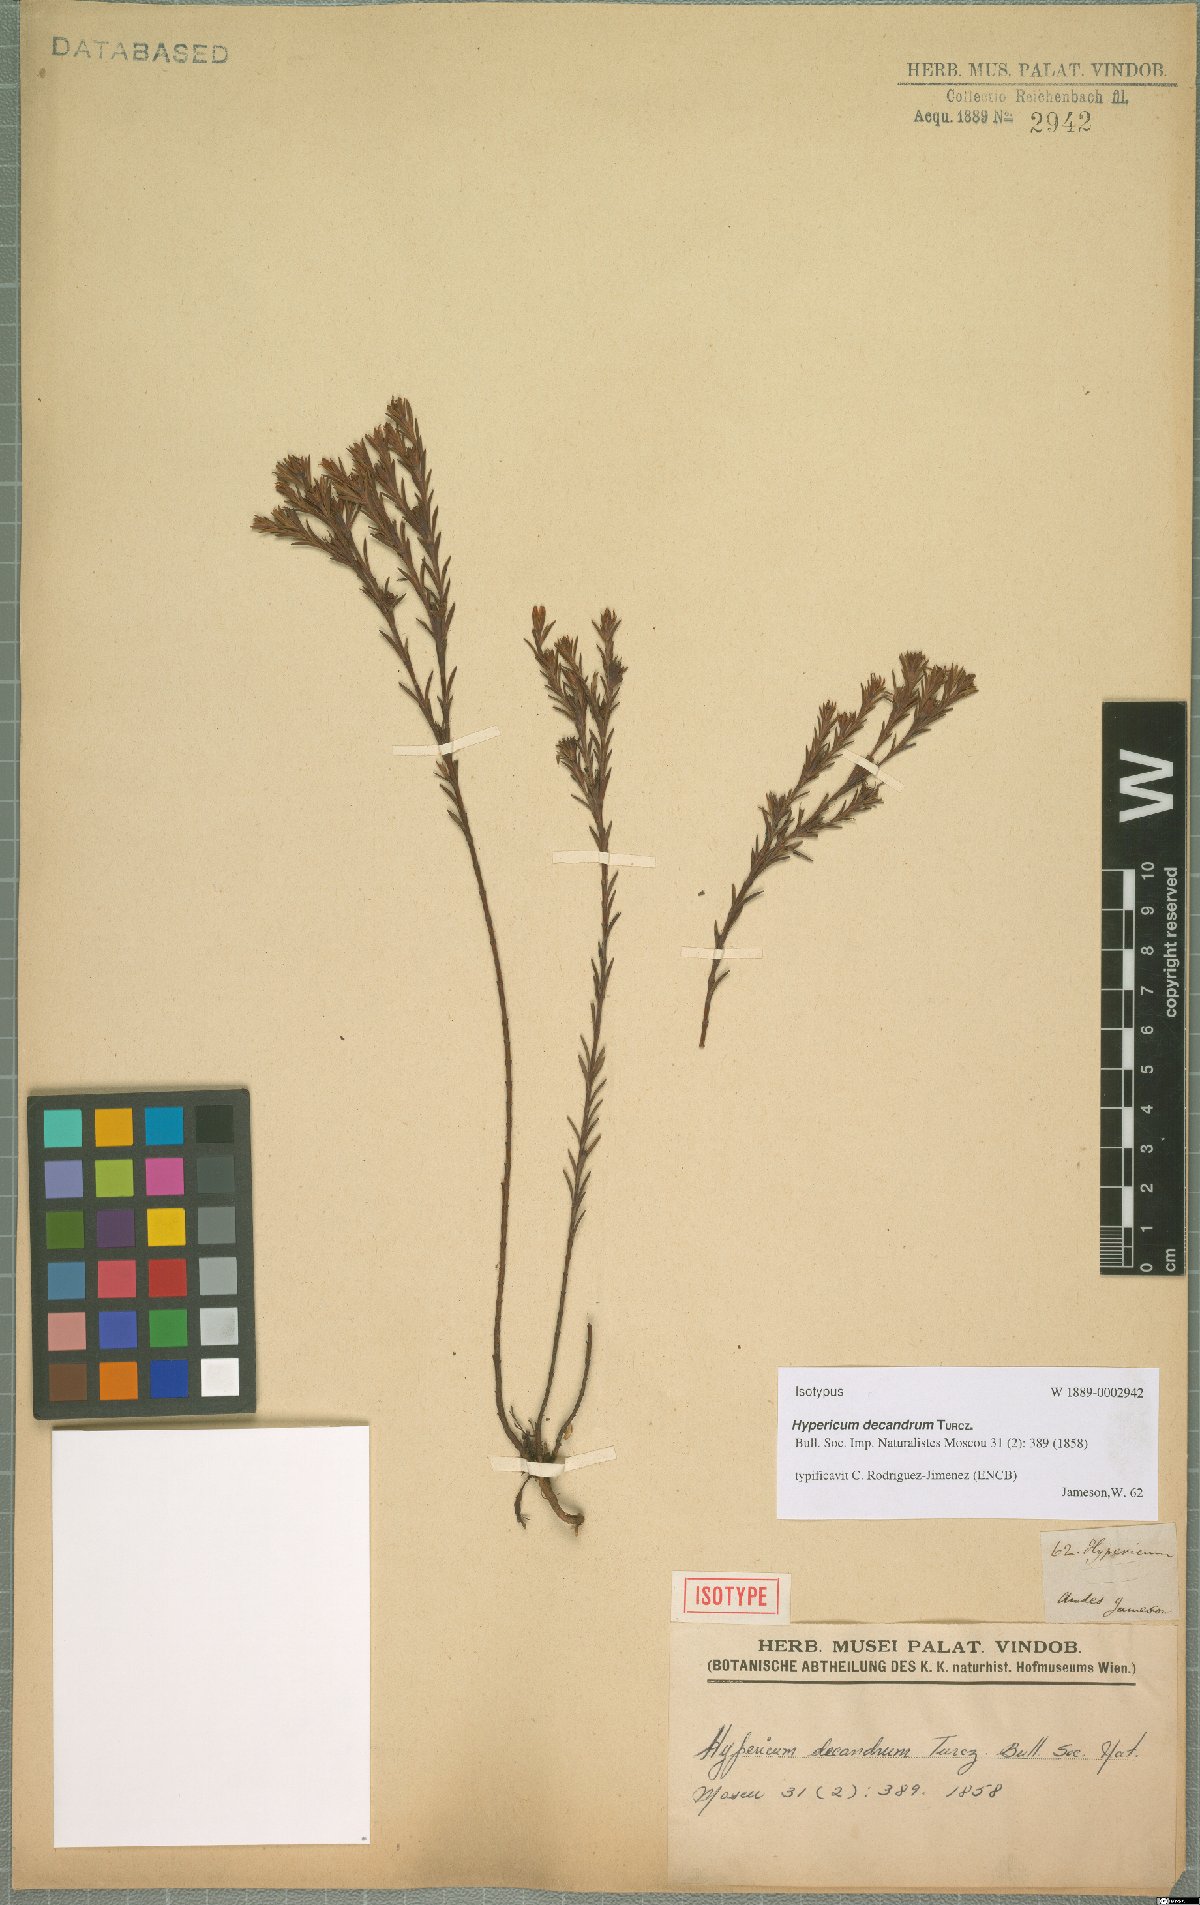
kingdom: Plantae
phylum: Tracheophyta
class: Magnoliopsida
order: Malpighiales
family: Hypericaceae
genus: Hypericum
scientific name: Hypericum decandrum
